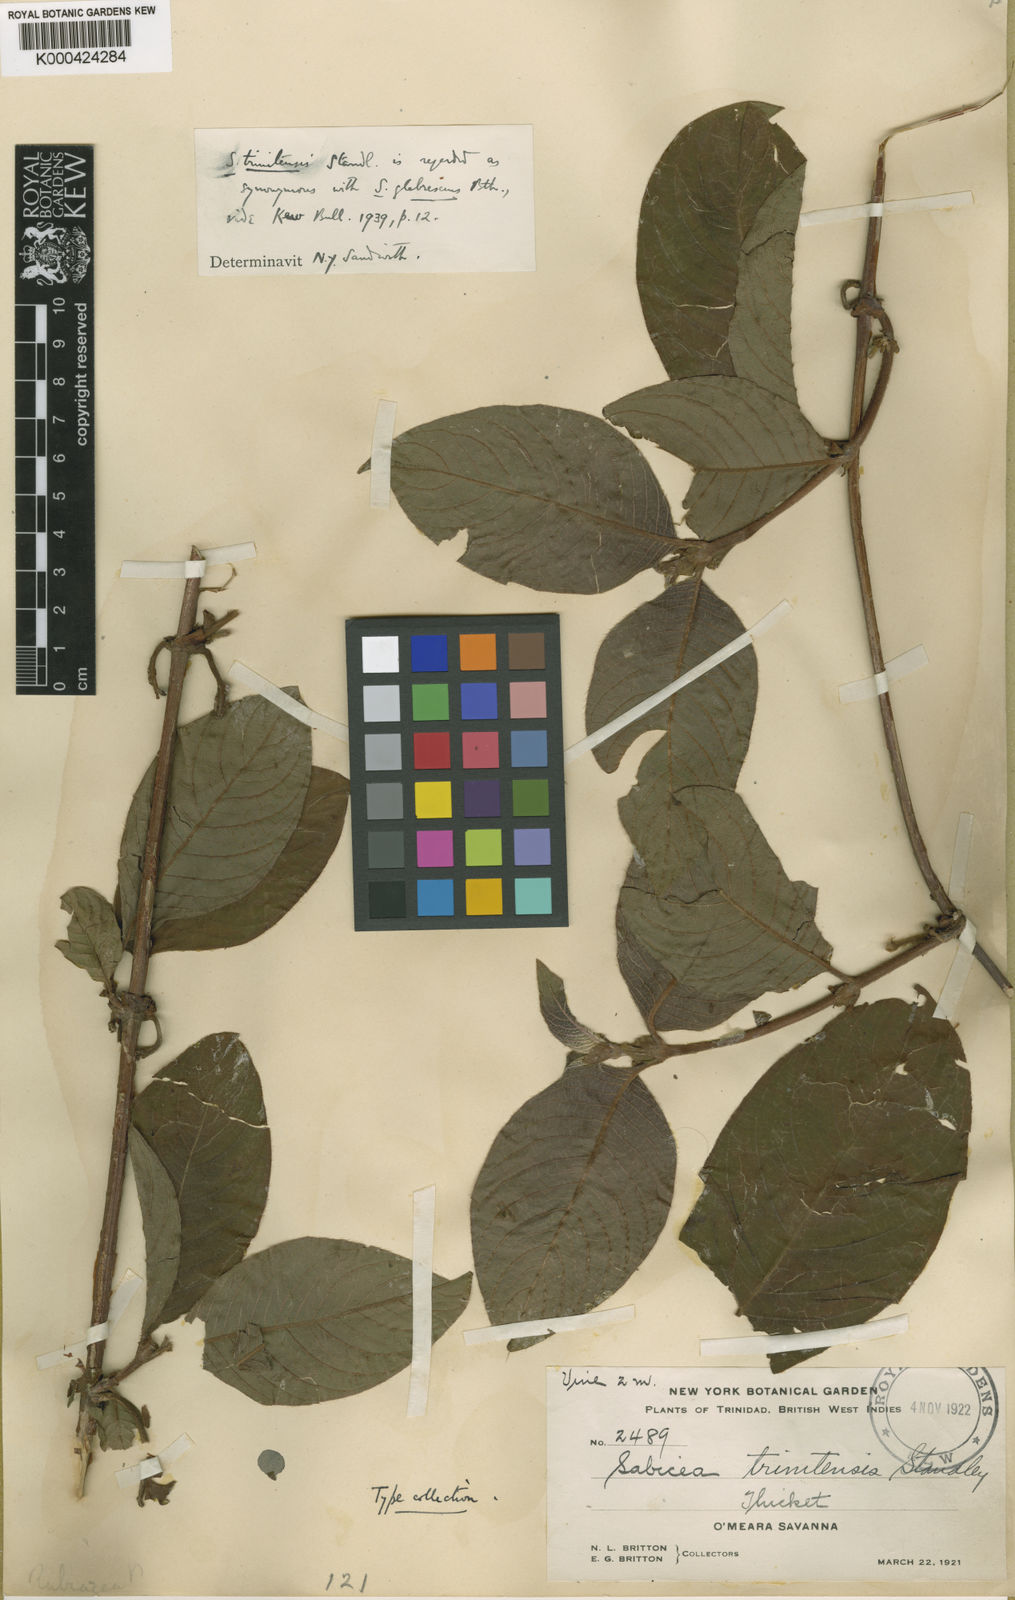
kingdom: Plantae
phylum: Tracheophyta
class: Magnoliopsida
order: Gentianales
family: Rubiaceae
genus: Sabicea
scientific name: Sabicea glabrescens
